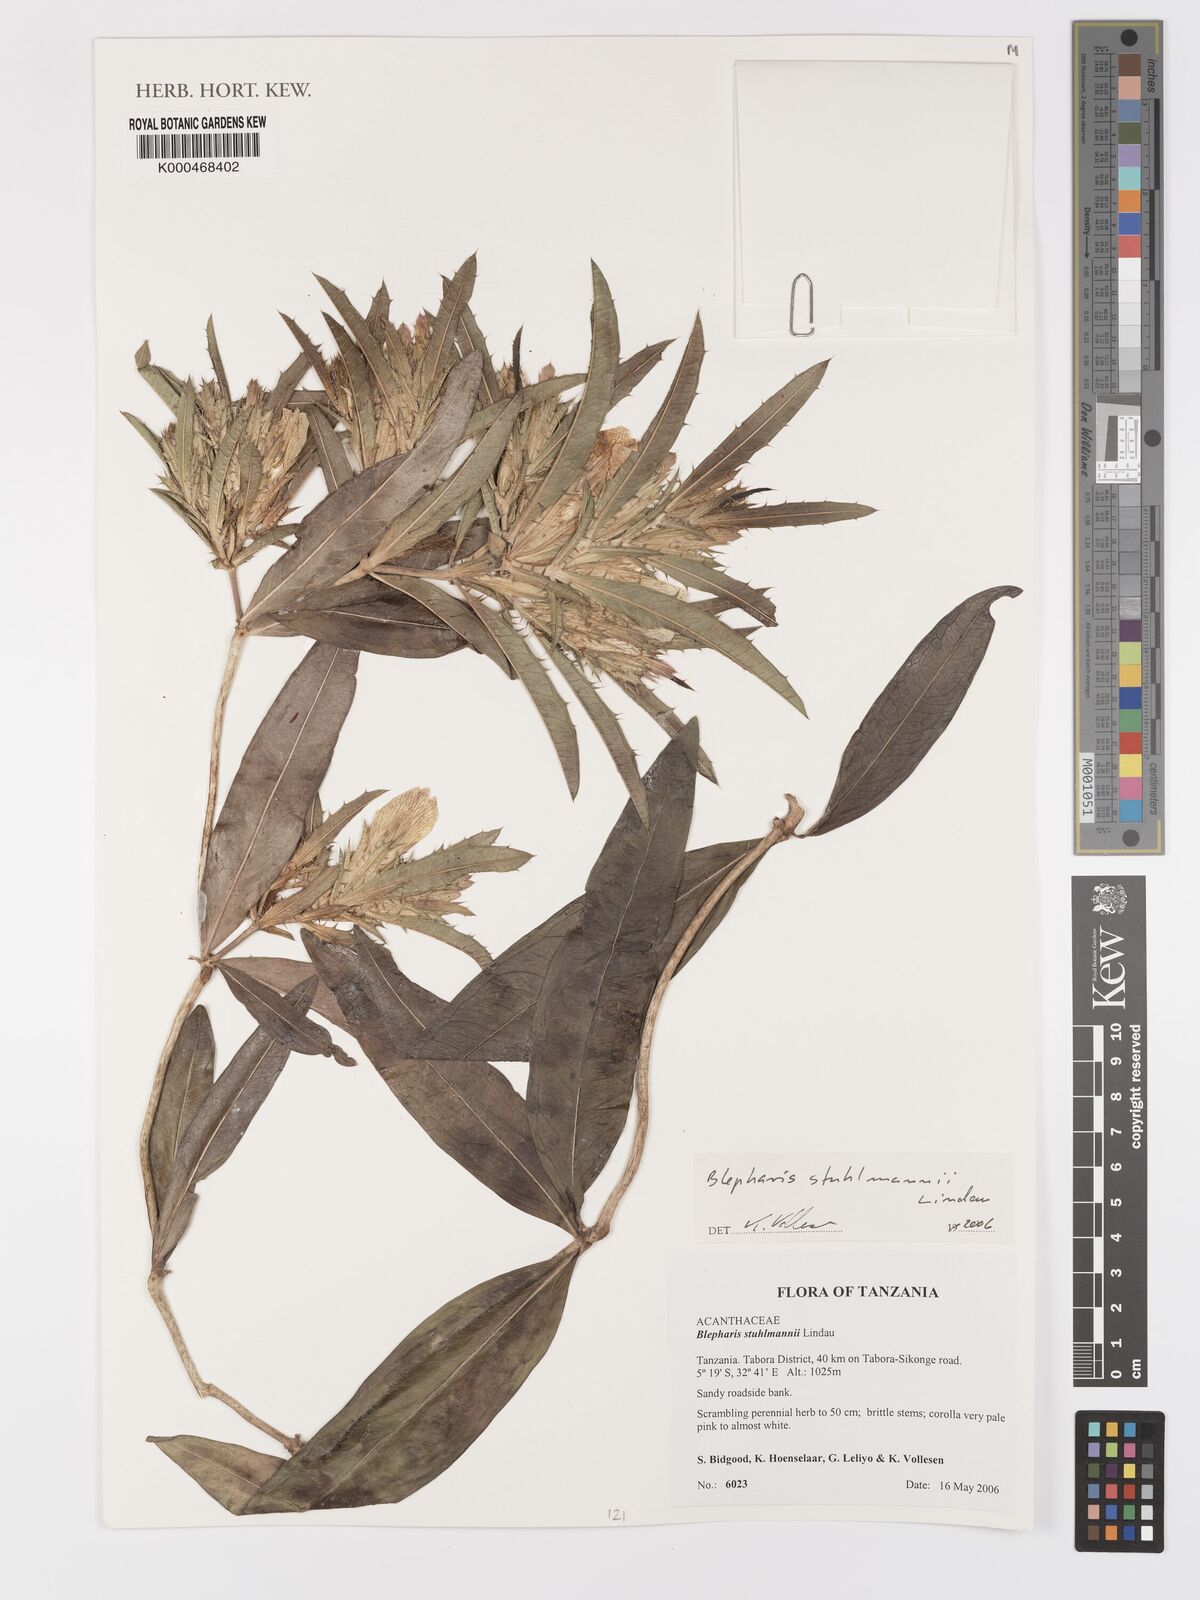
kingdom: Plantae
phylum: Tracheophyta
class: Magnoliopsida
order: Lamiales
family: Acanthaceae
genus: Blepharis
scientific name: Blepharis stuhlmannii
